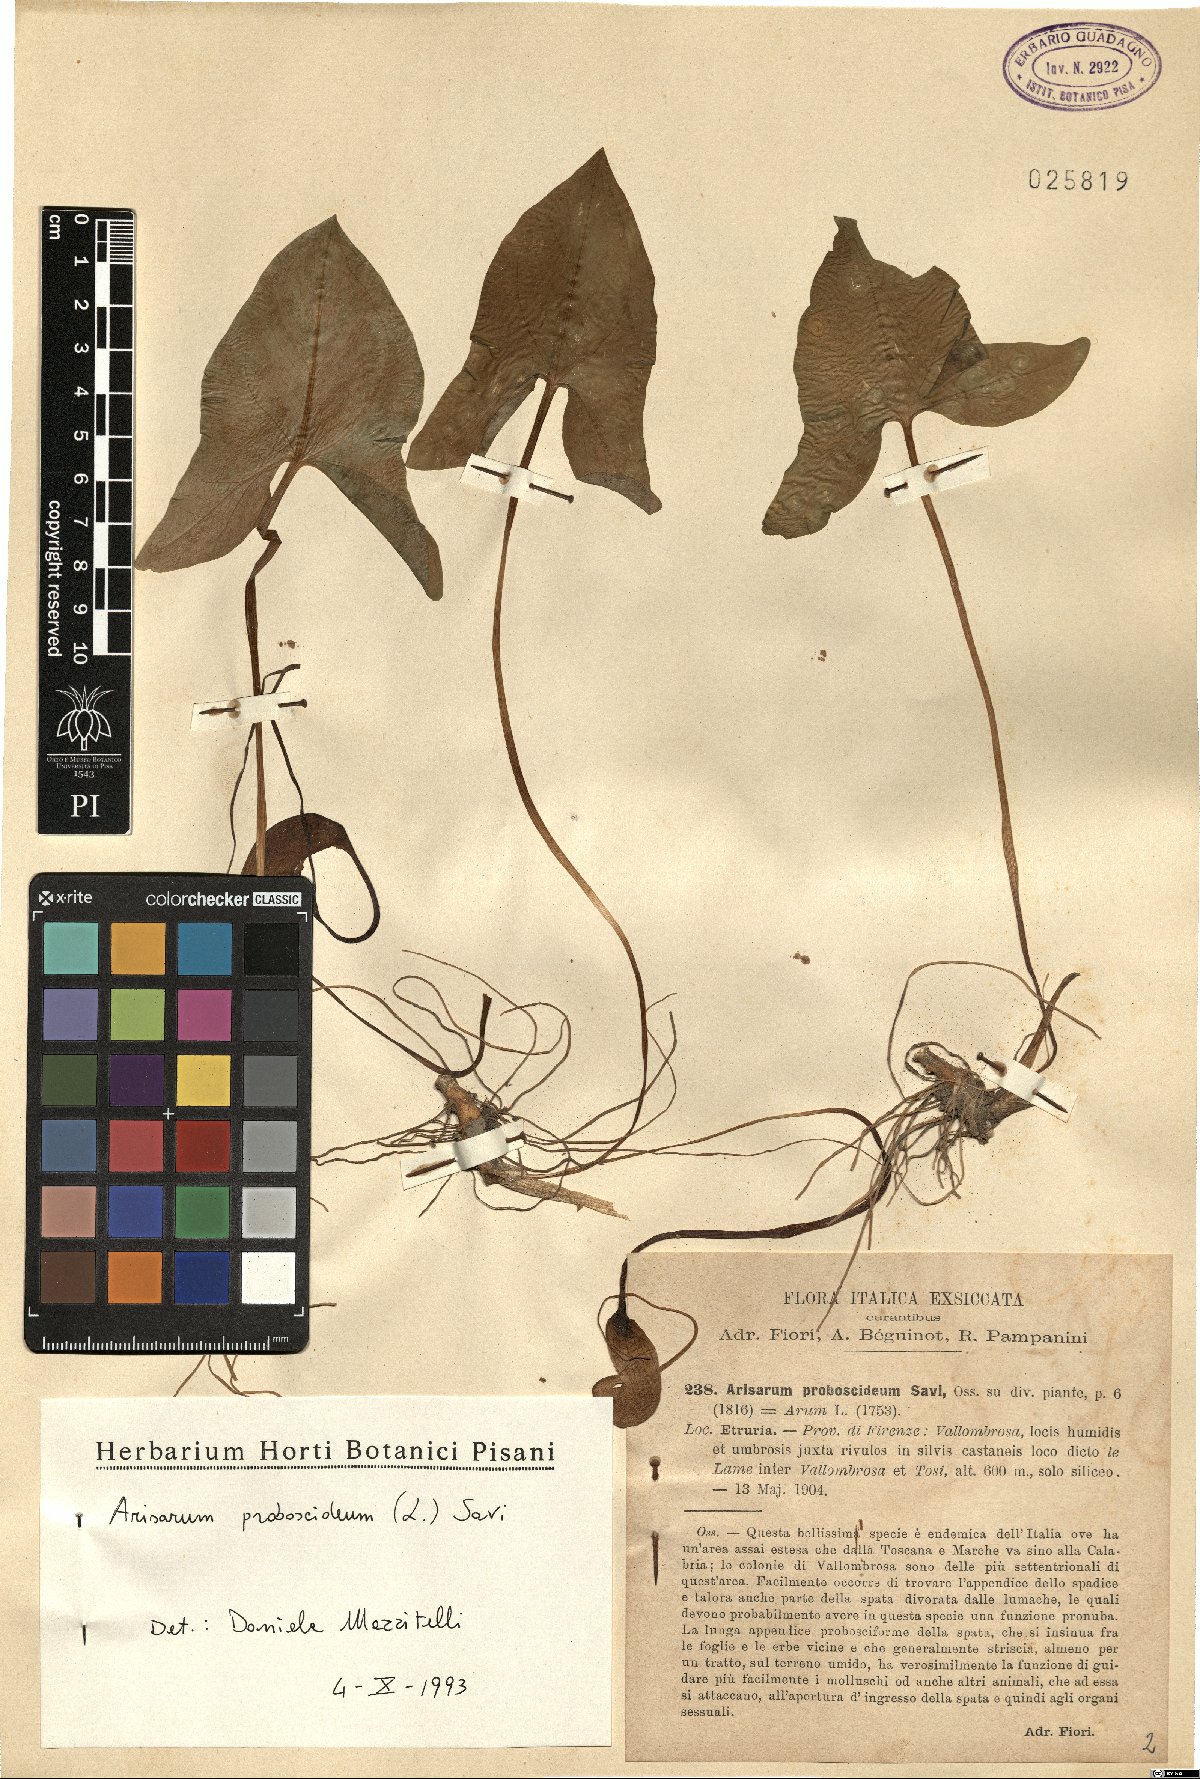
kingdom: Plantae
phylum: Tracheophyta
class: Liliopsida
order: Alismatales
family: Araceae
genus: Arisarum
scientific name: Arisarum proboscideum
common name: Mousetailplant
